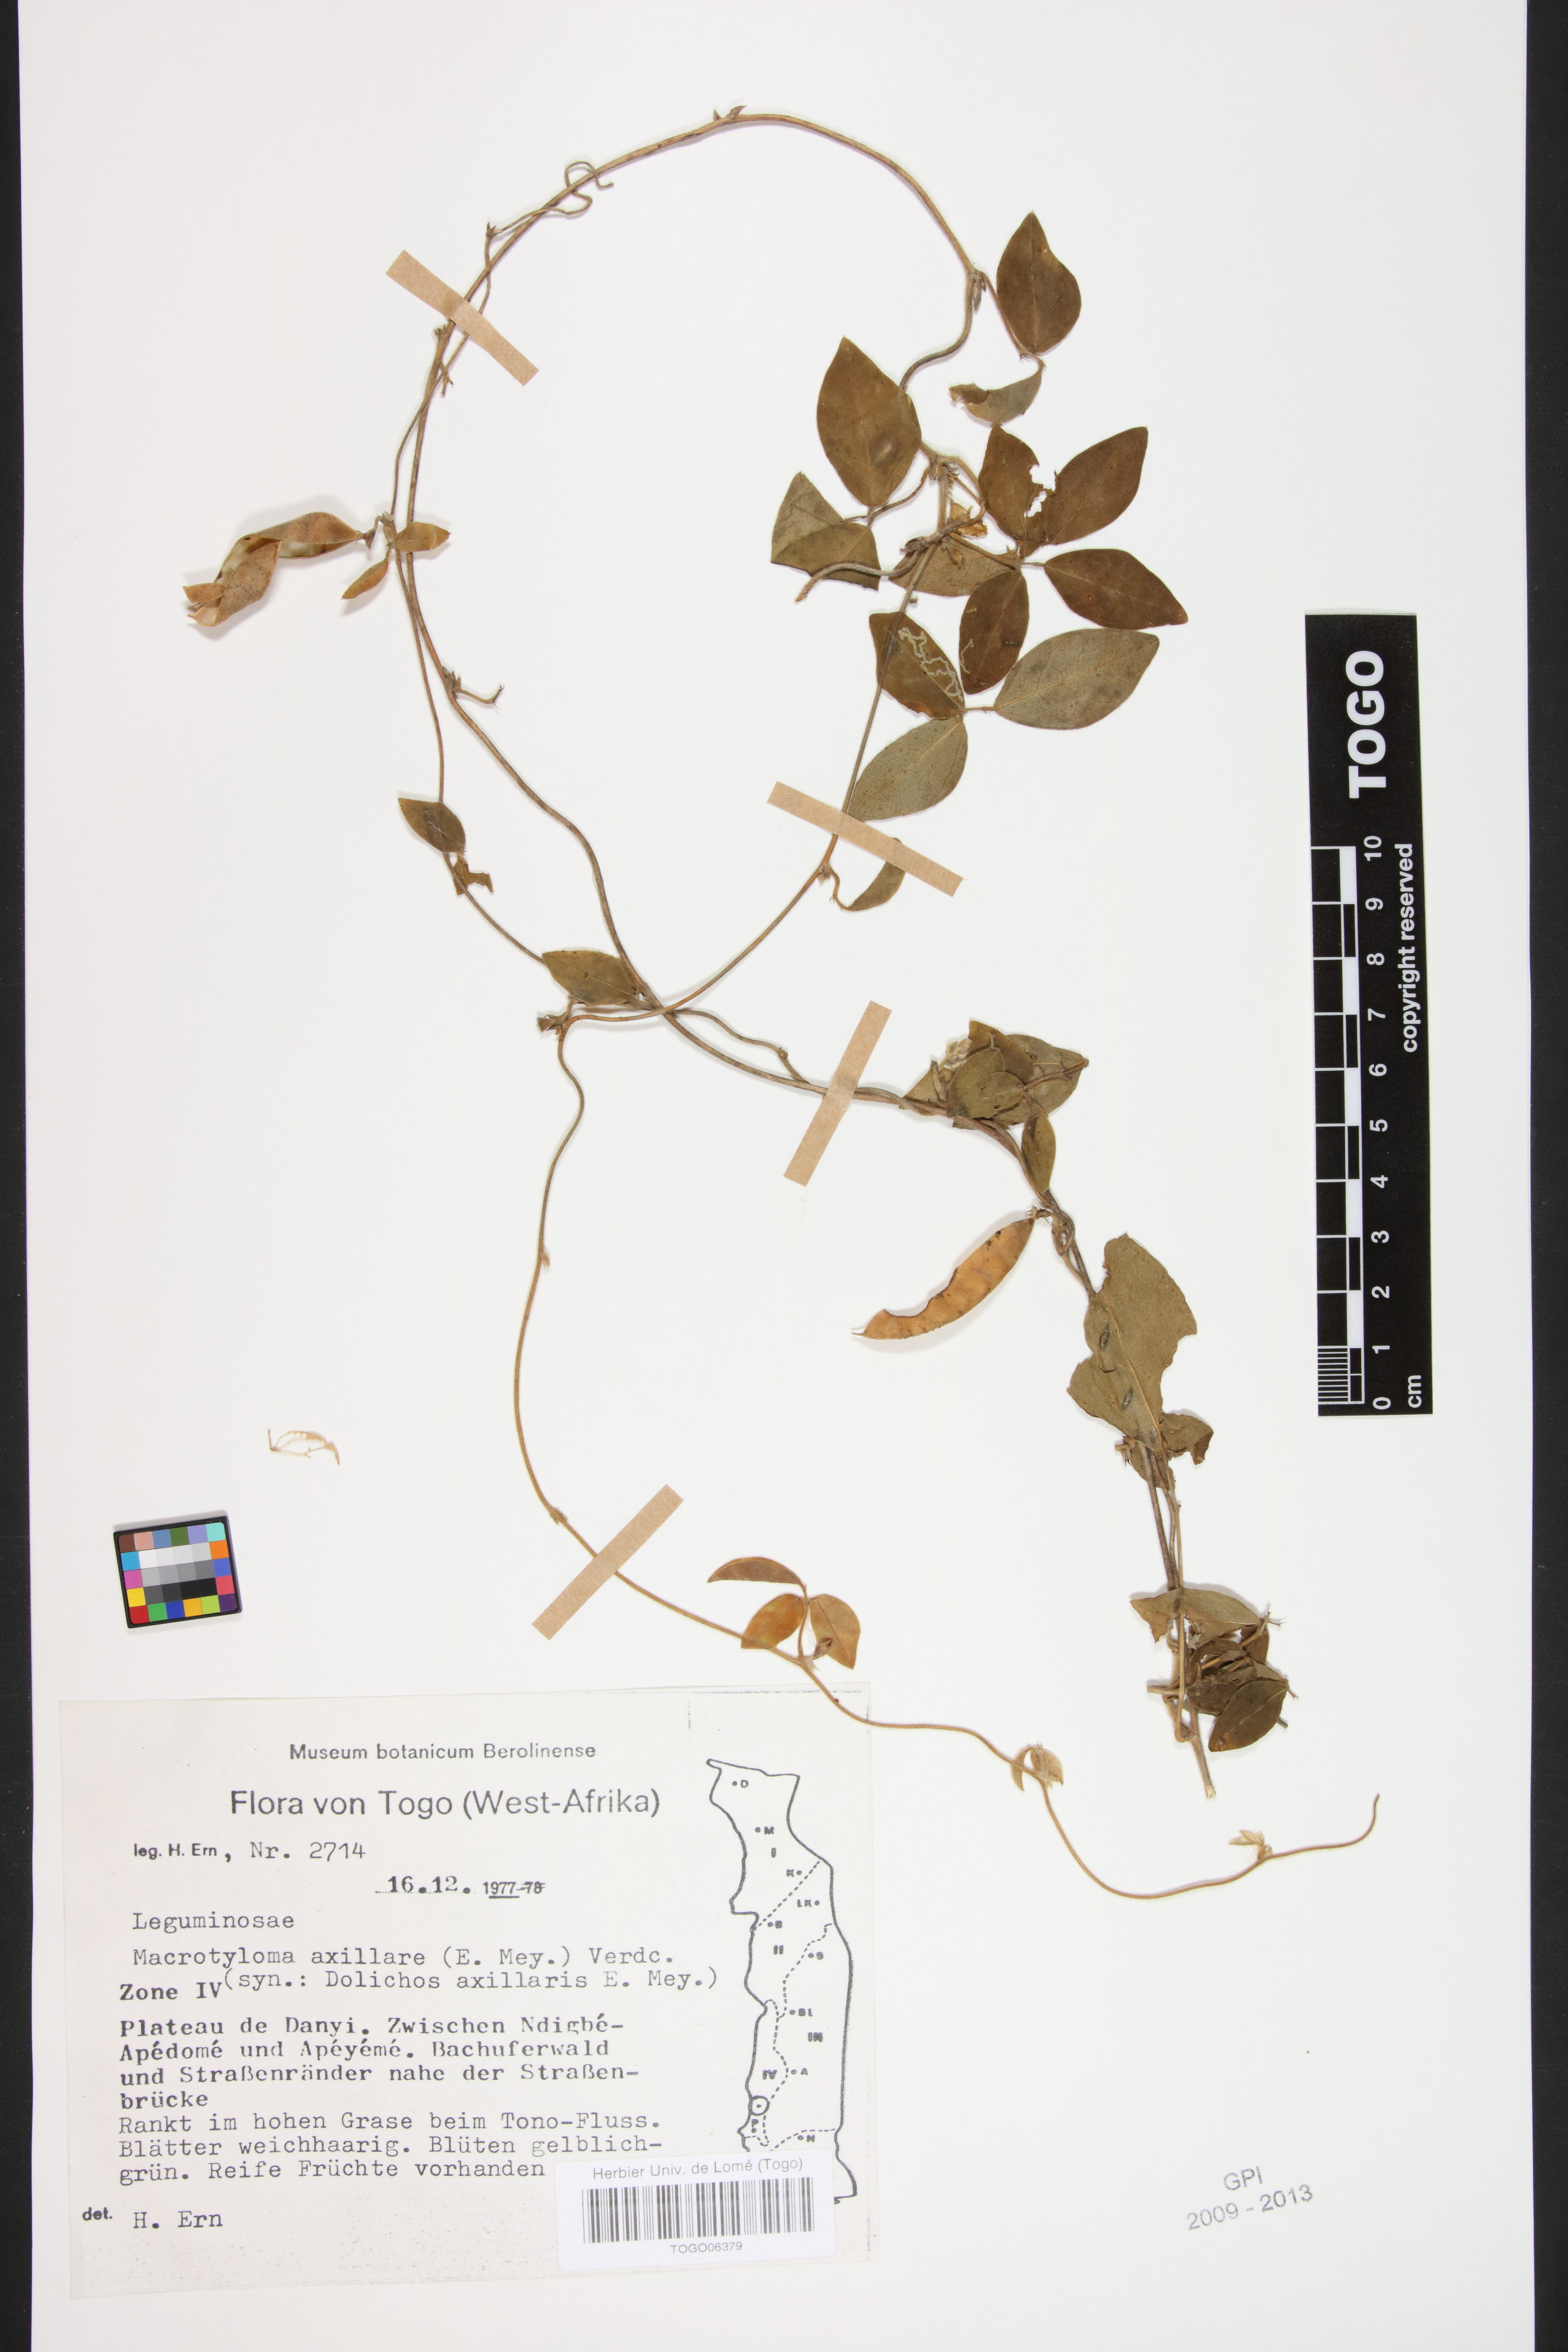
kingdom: Plantae
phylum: Tracheophyta
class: Magnoliopsida
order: Fabales
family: Fabaceae
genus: Macrotyloma
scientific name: Macrotyloma axillare
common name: Perennial horsegram
